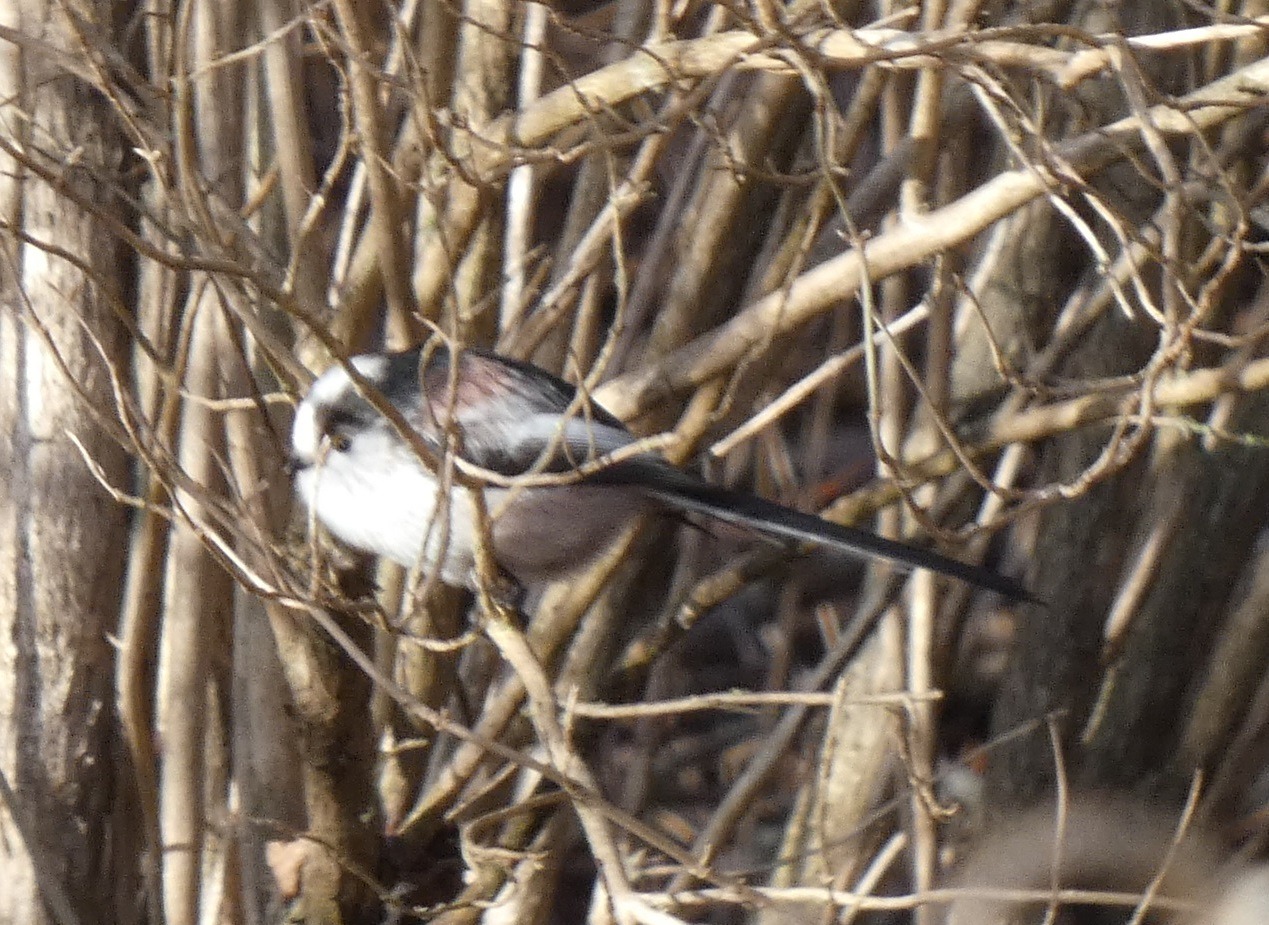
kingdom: Animalia
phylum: Chordata
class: Aves
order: Passeriformes
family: Aegithalidae
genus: Aegithalos
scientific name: Aegithalos caudatus
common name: Halemejse
